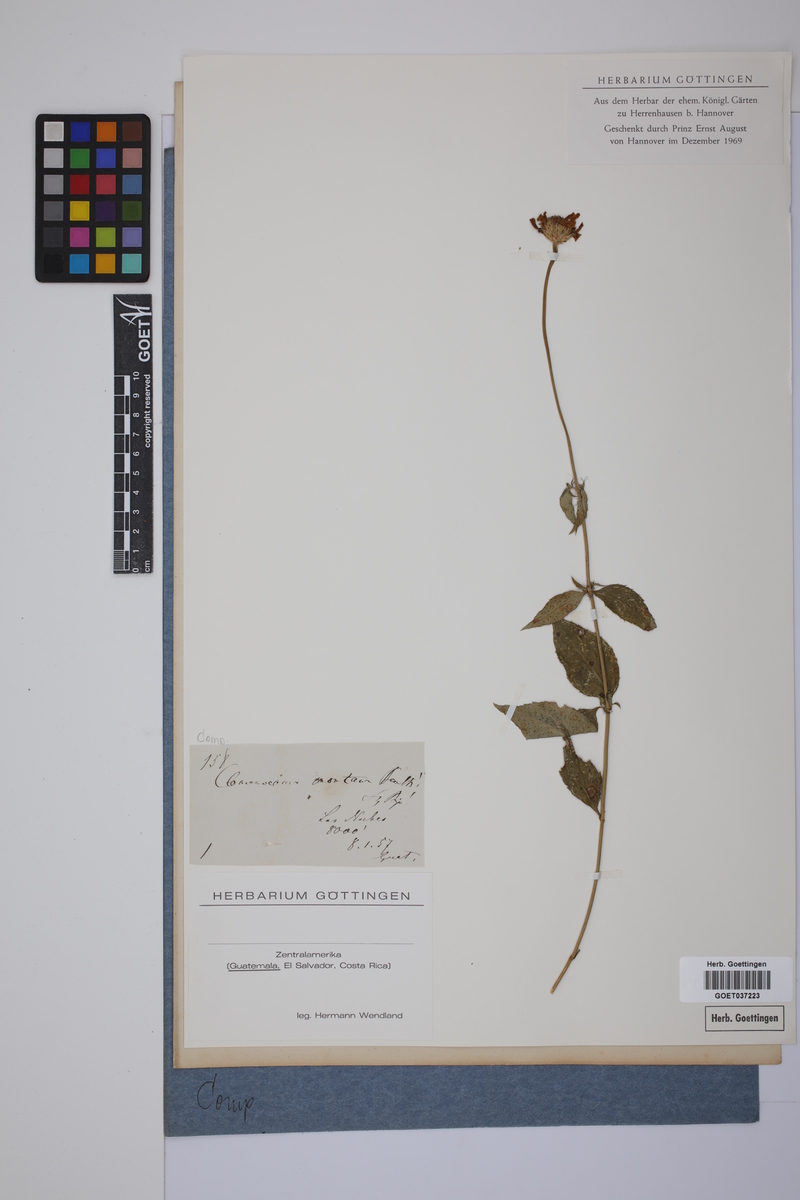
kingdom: Plantae
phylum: Tracheophyta
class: Magnoliopsida
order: Asterales
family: Asteraceae
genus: Comaclinium
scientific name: Comaclinium montanum
